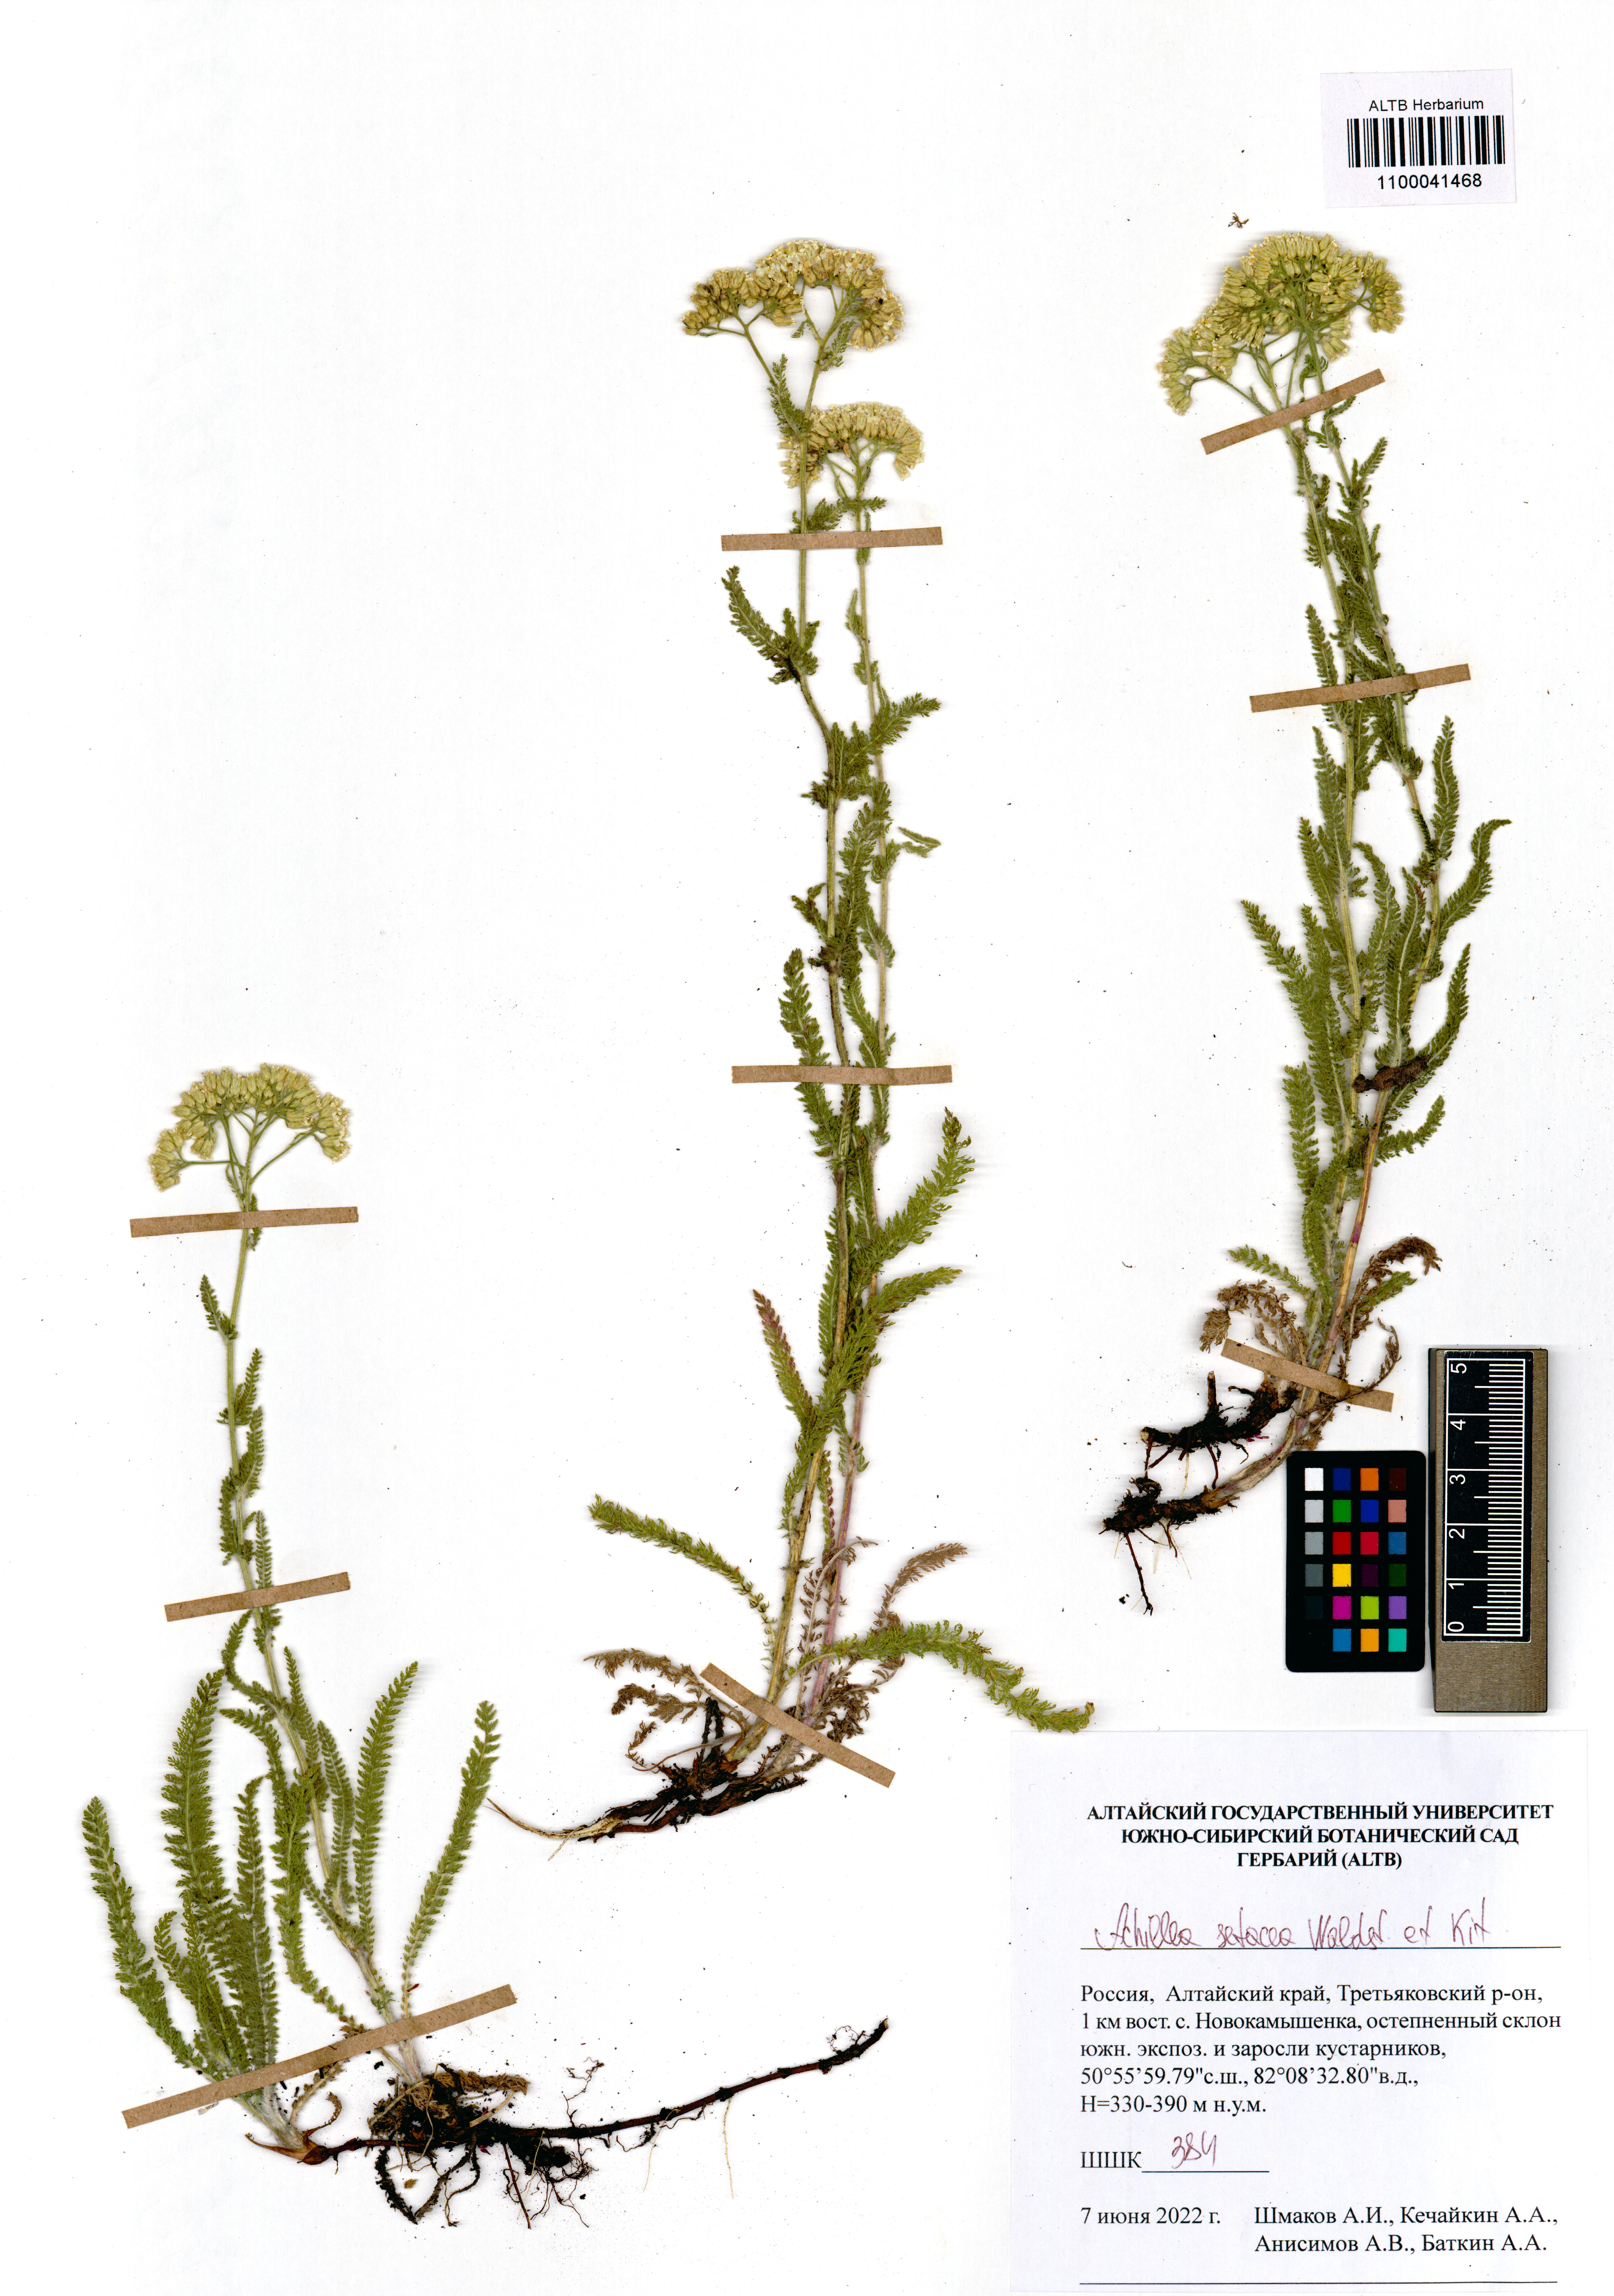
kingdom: Plantae
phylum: Tracheophyta
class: Magnoliopsida
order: Asterales
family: Asteraceae
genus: Achillea
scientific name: Achillea setacea
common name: Bristly yarrow
